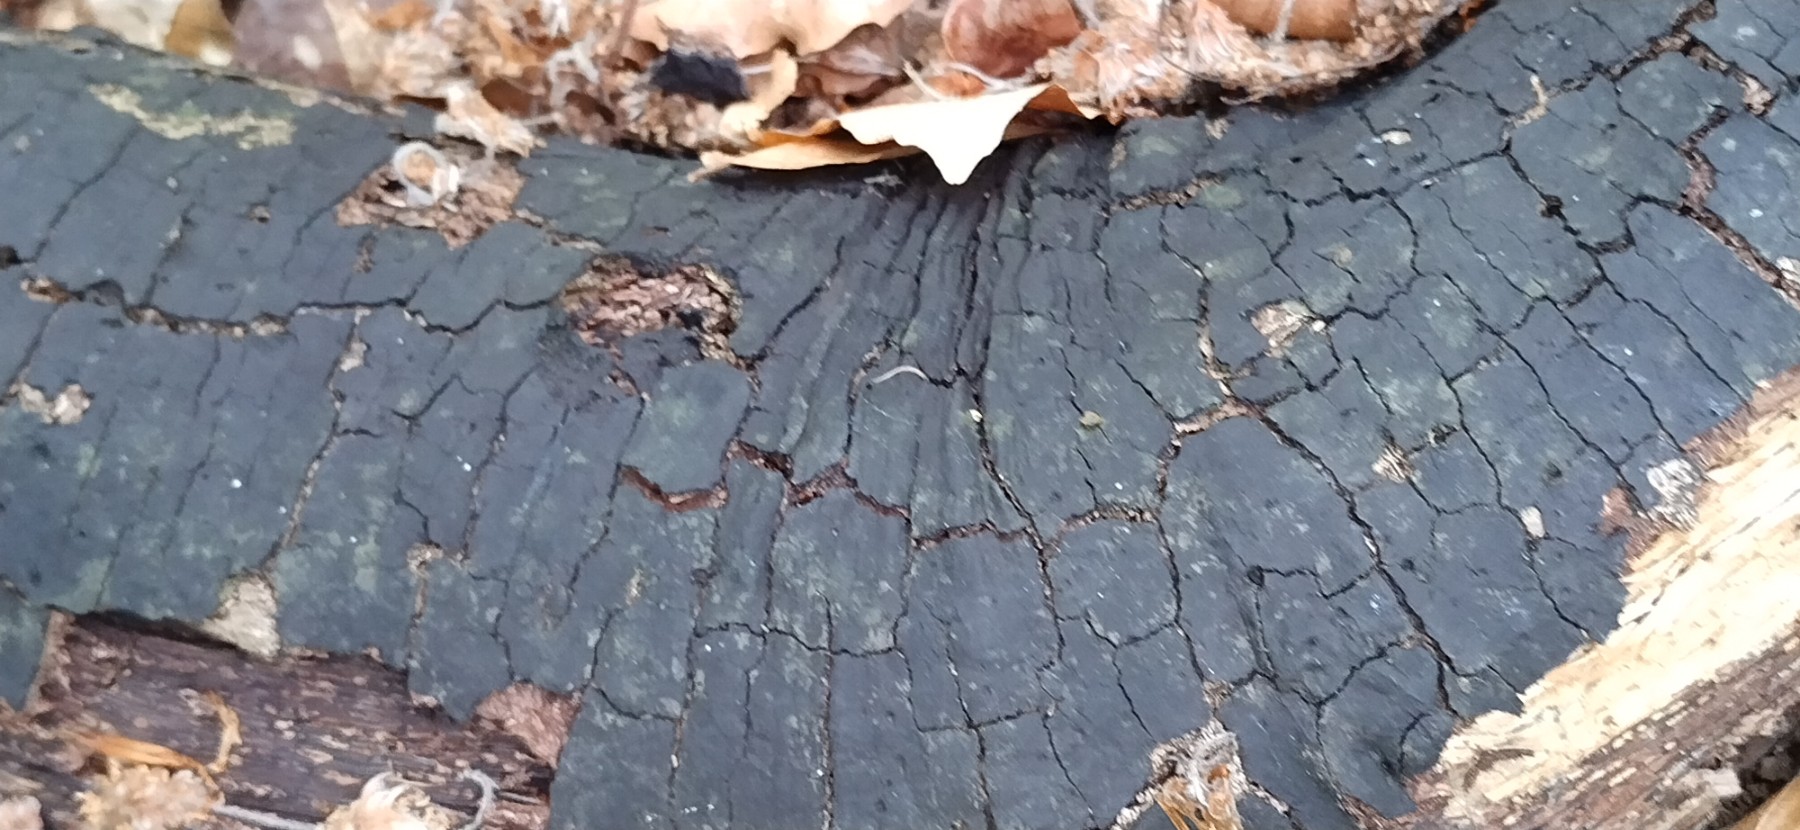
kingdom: Fungi
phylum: Ascomycota
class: Sordariomycetes
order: Xylariales
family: Diatrypaceae
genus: Diatrype
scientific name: Diatrype decorticata
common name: barksprænger-kulskorpe
